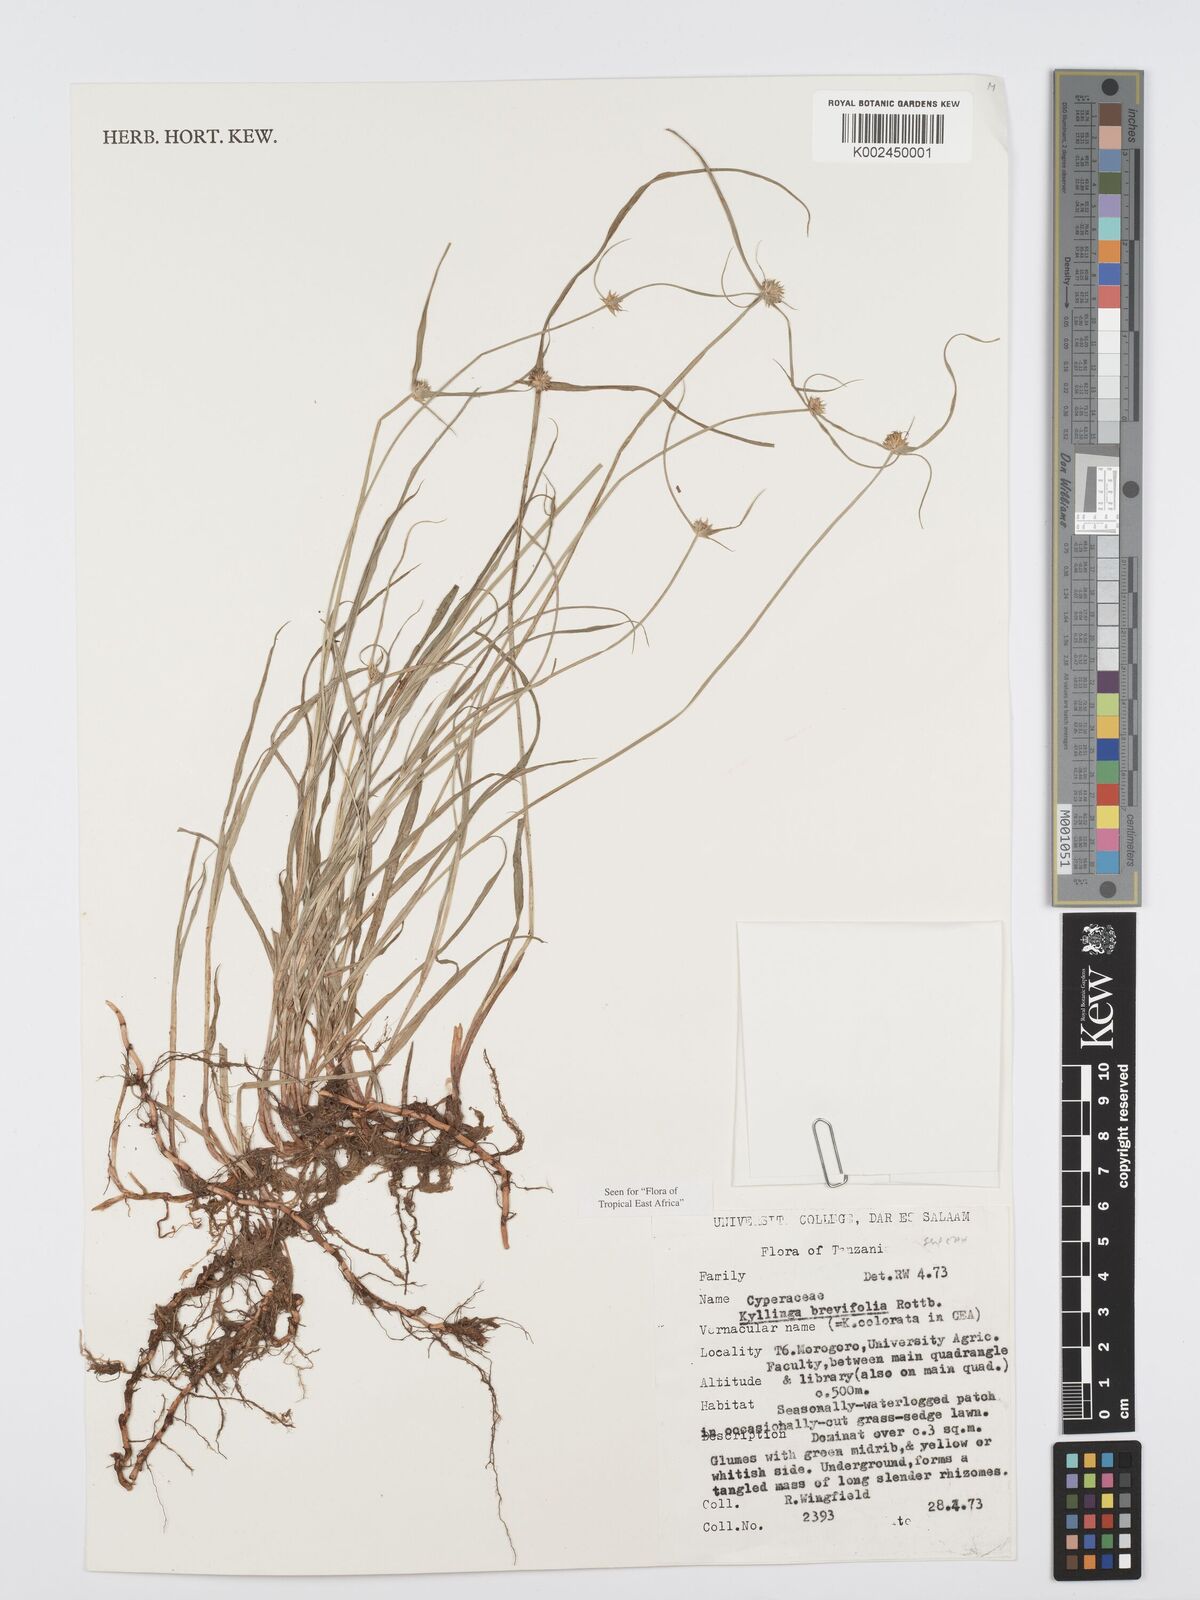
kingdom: Plantae
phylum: Tracheophyta
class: Liliopsida
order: Poales
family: Cyperaceae
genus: Cyperus
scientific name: Cyperus brevifolius
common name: Globe kyllinga
